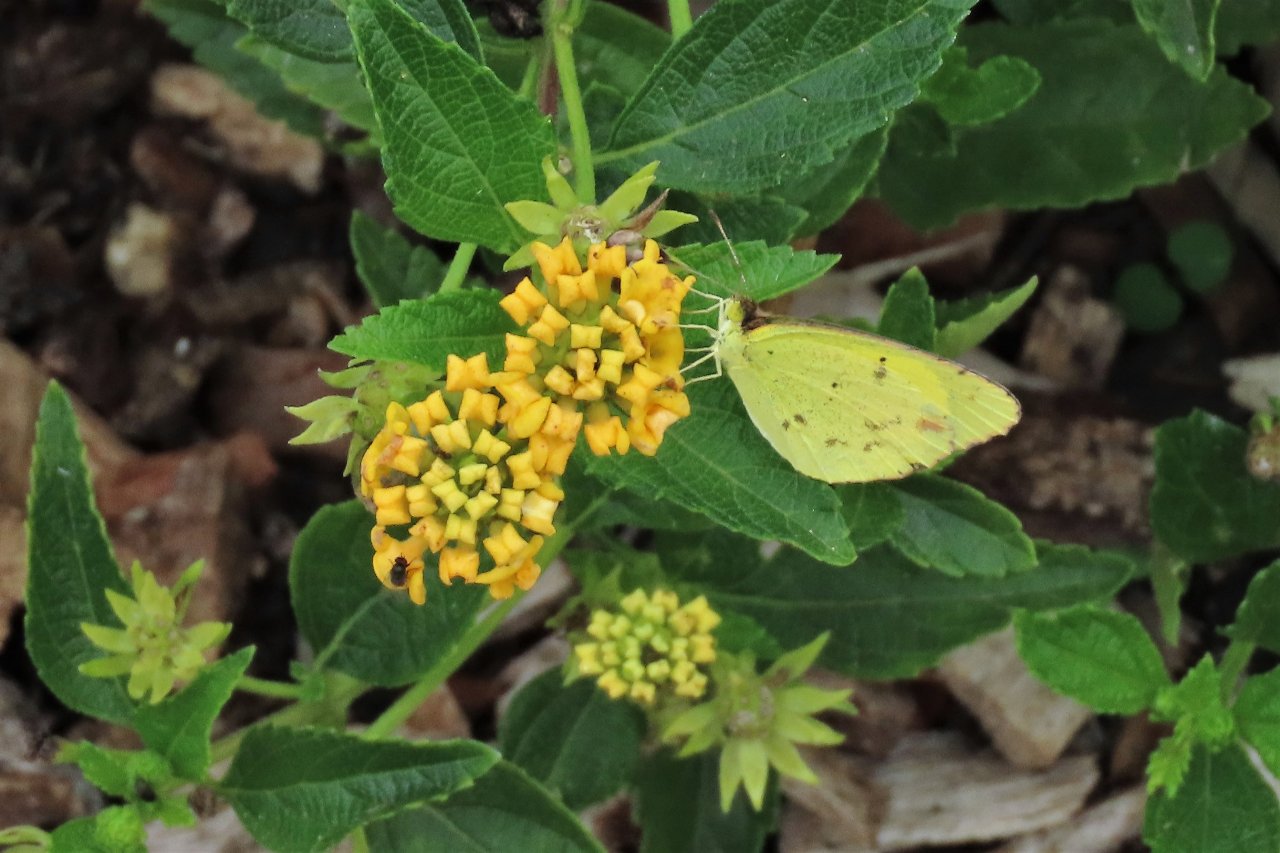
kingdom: Animalia
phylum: Arthropoda
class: Insecta
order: Lepidoptera
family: Pieridae
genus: Pyrisitia
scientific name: Pyrisitia lisa
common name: Little Yellow
